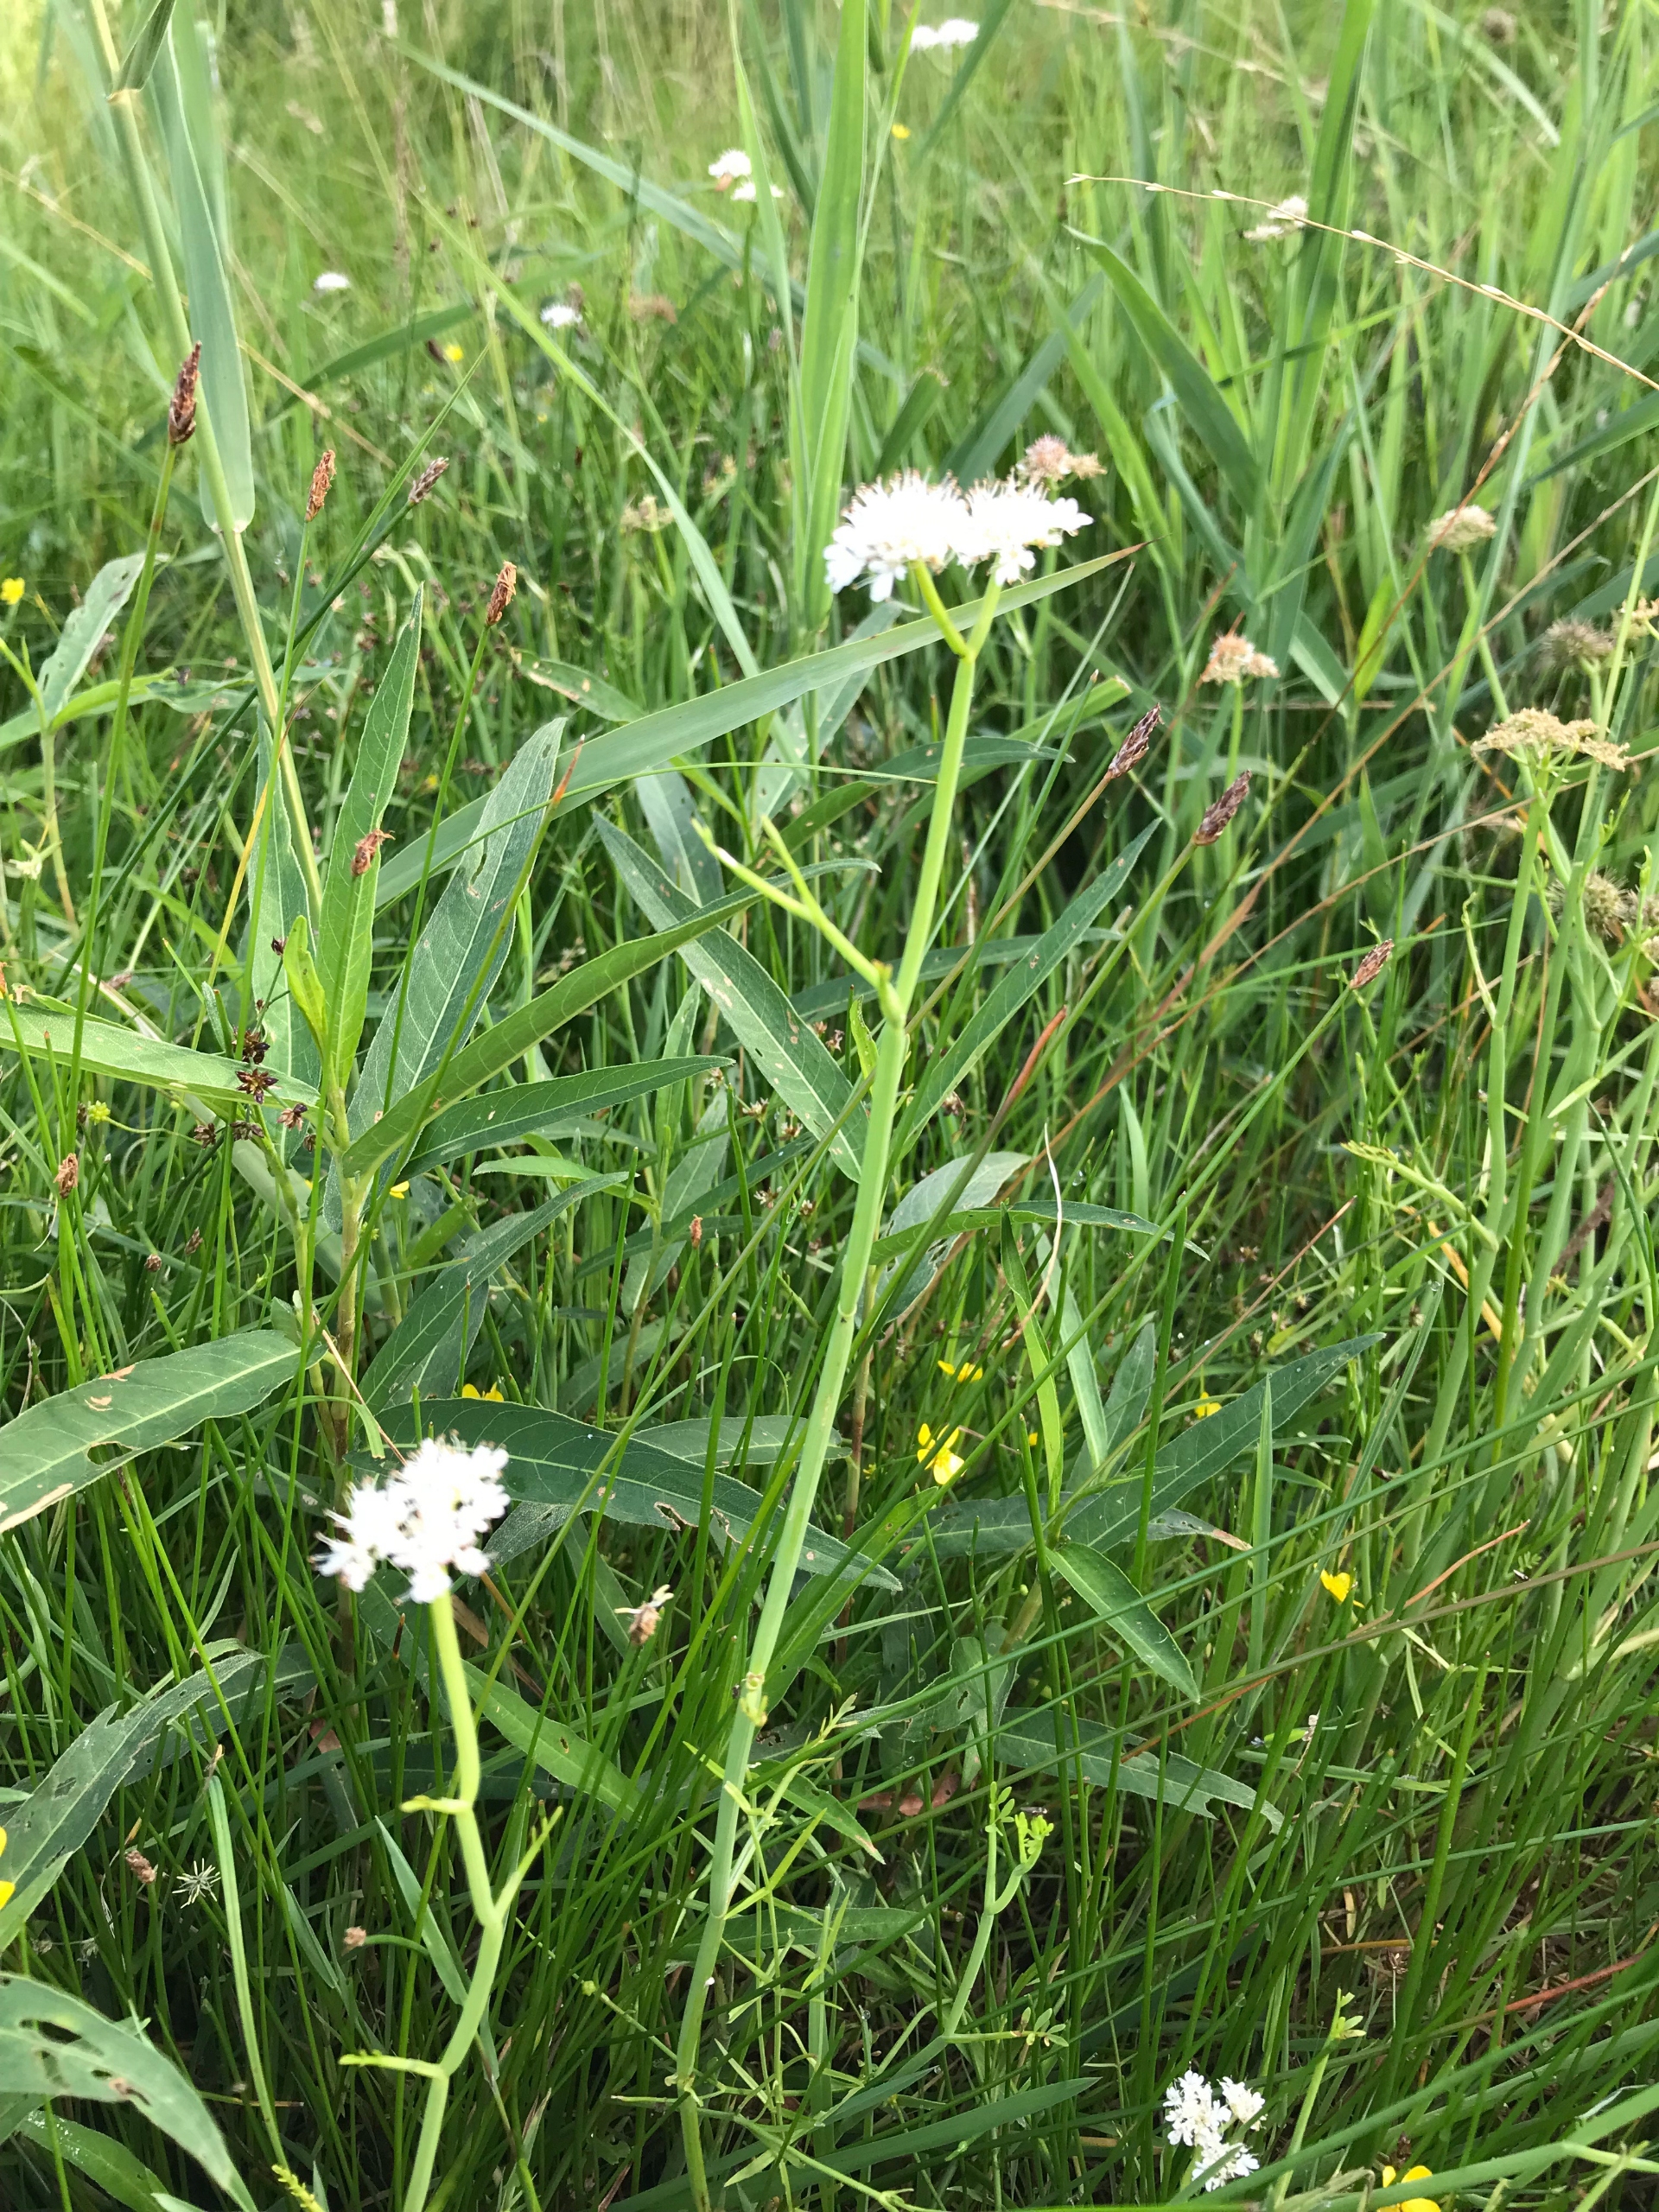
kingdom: Plantae
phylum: Tracheophyta
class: Magnoliopsida
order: Apiales
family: Apiaceae
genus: Oenanthe
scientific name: Oenanthe fistulosa
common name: Vand-klaseskærm
